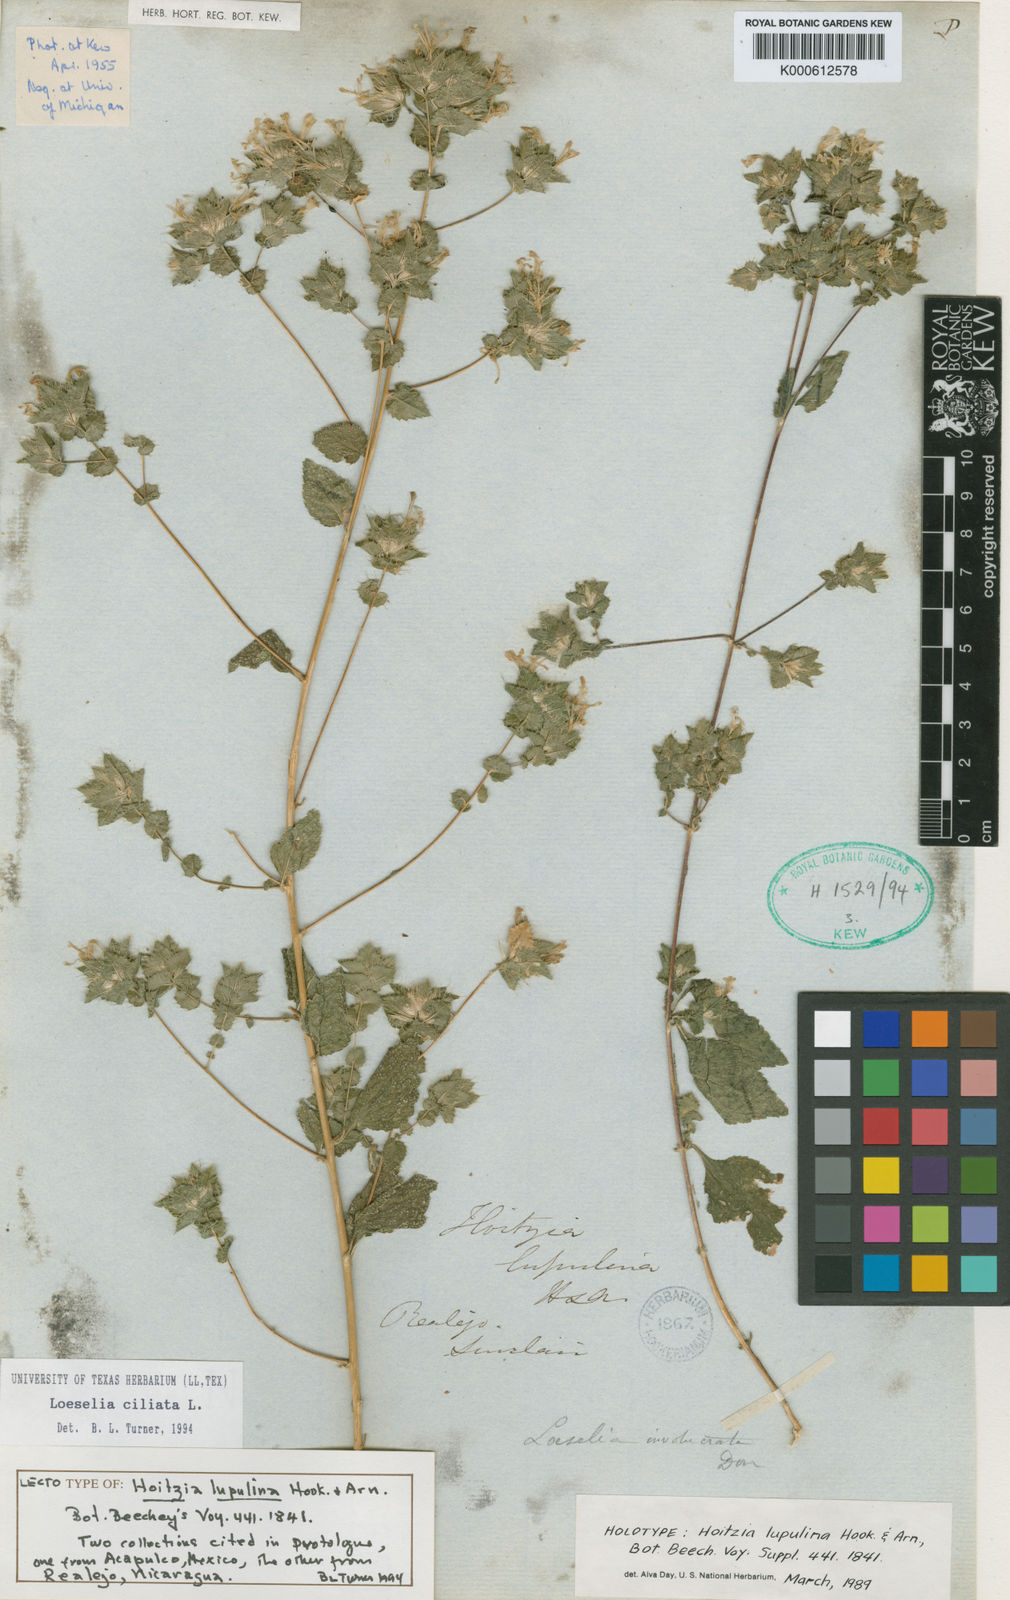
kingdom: Plantae
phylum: Tracheophyta
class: Magnoliopsida
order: Ericales
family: Polemoniaceae
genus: Loeselia
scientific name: Loeselia ciliata
